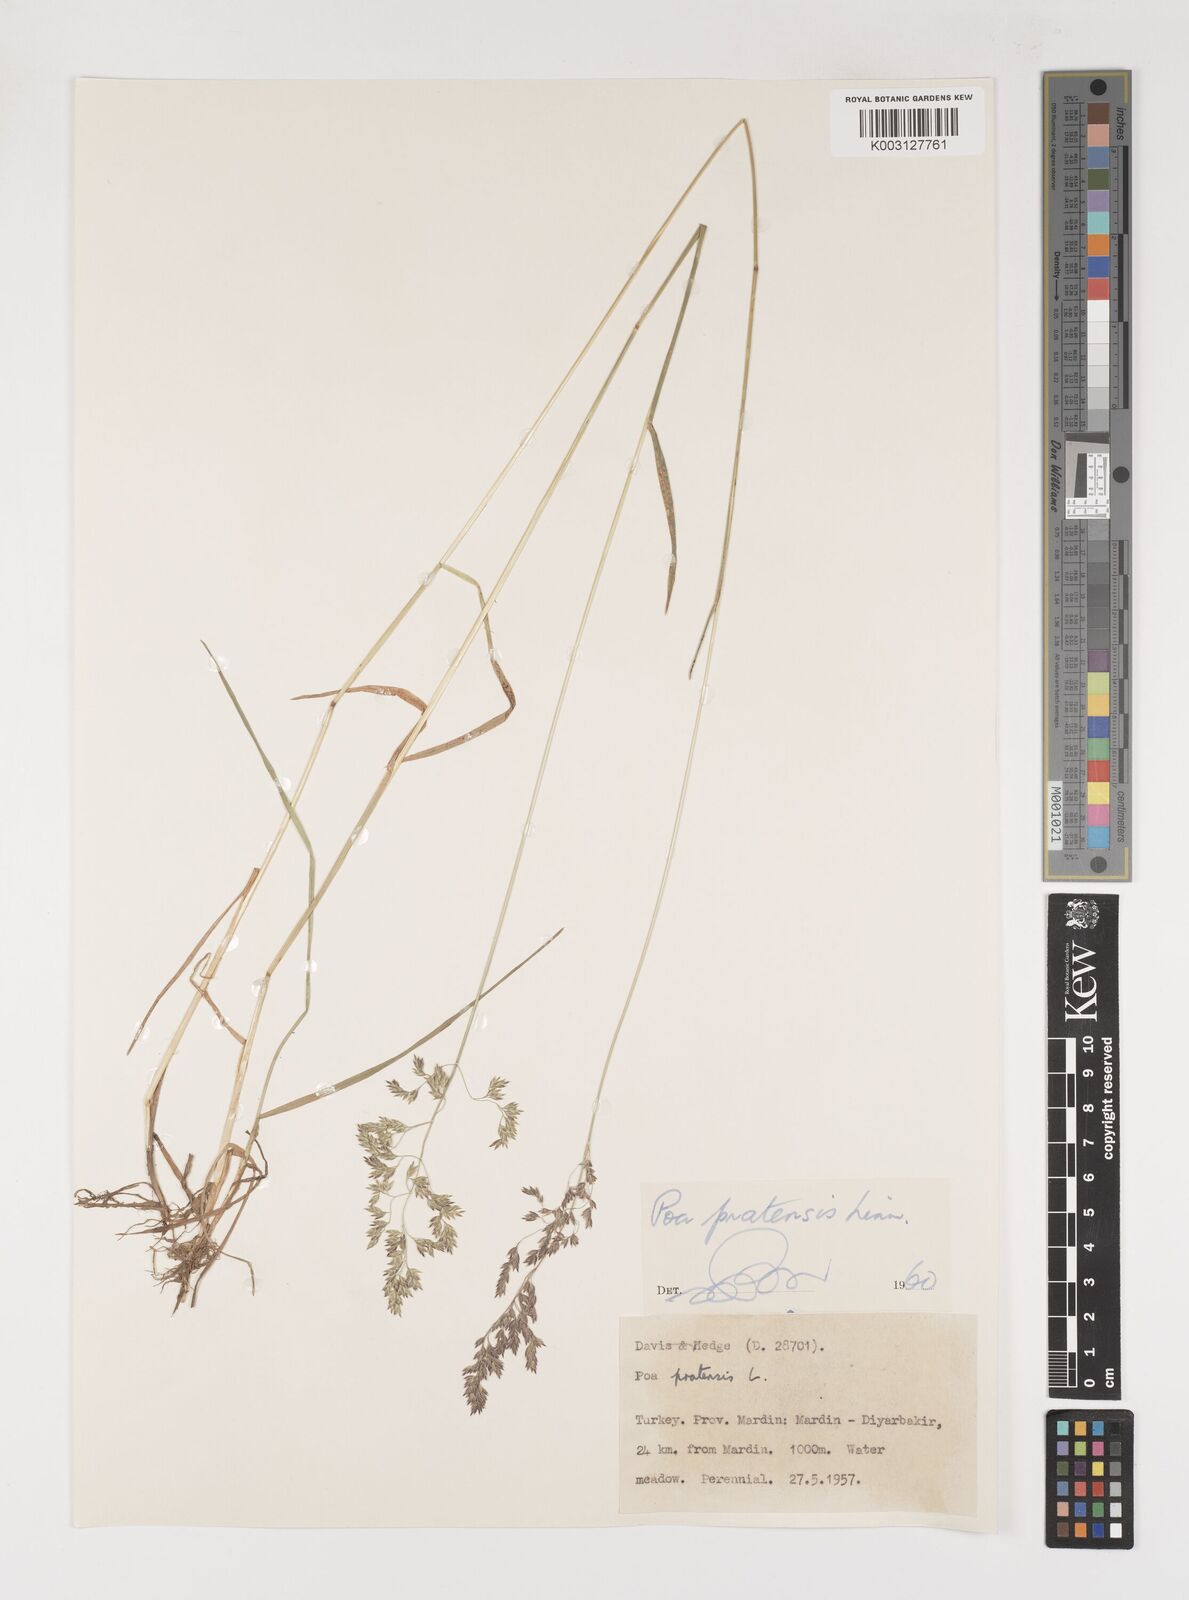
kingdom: Plantae
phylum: Tracheophyta
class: Liliopsida
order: Poales
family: Poaceae
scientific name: Poaceae
